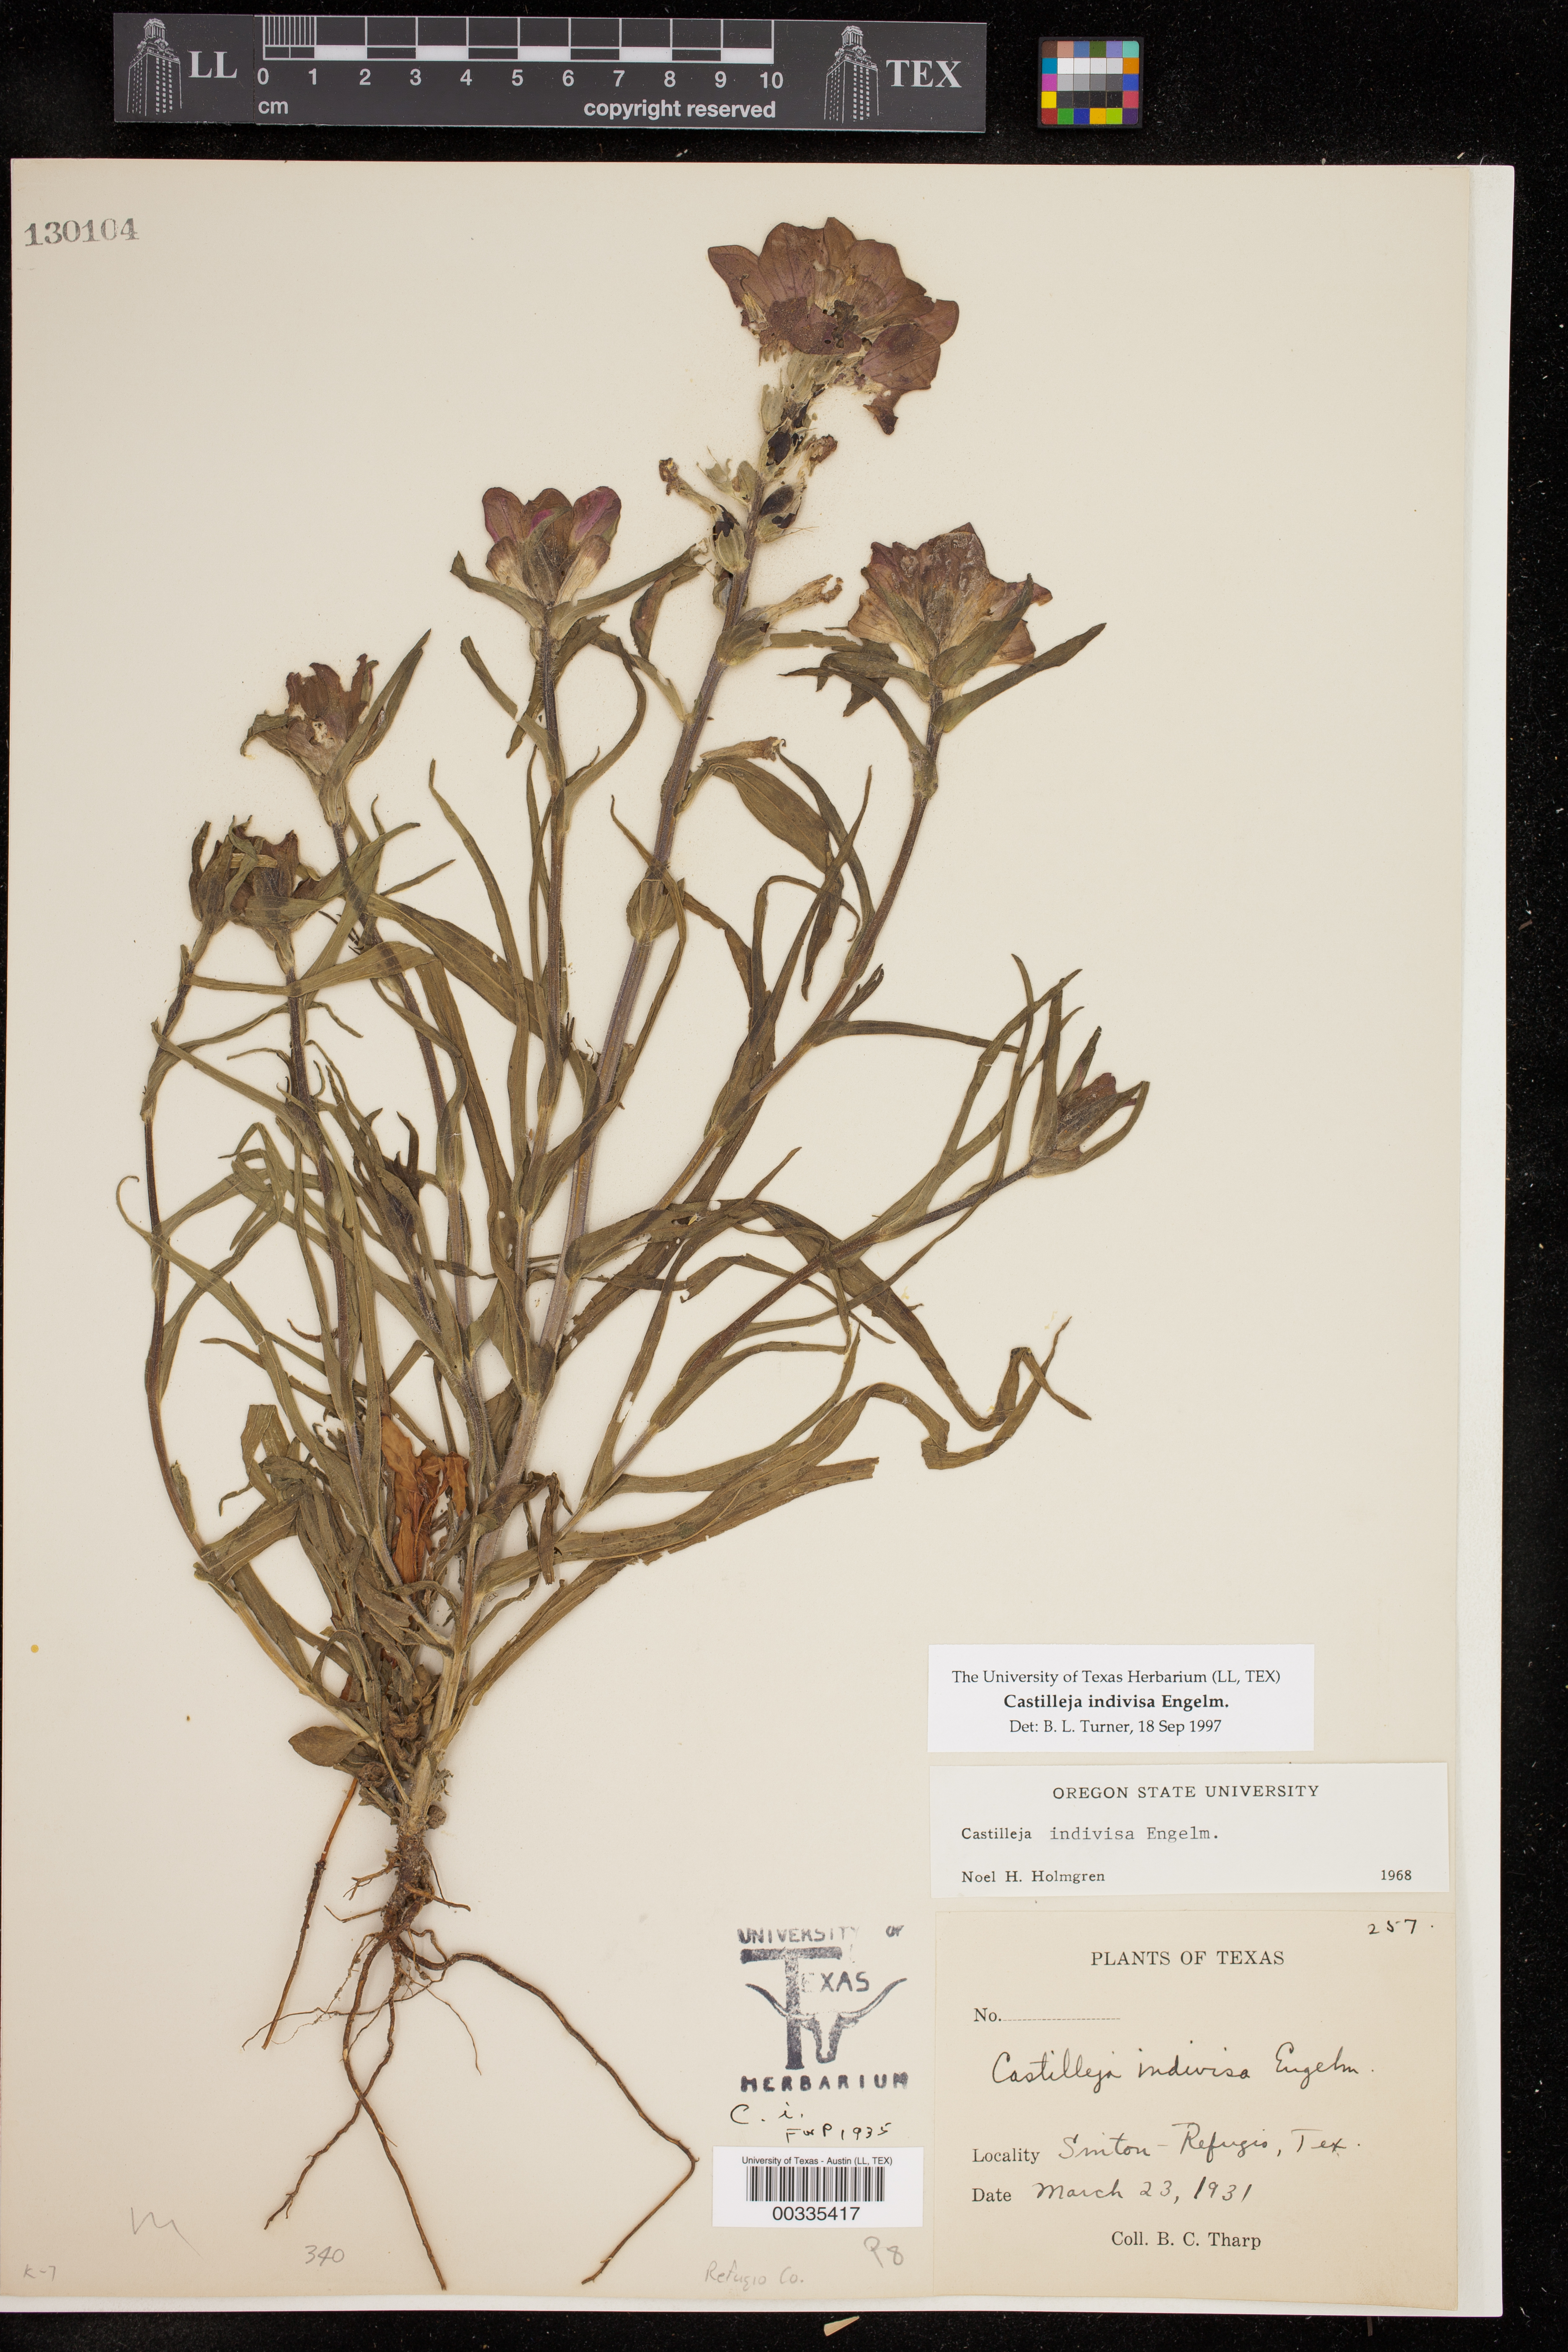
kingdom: Plantae
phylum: Tracheophyta
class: Magnoliopsida
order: Lamiales
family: Orobanchaceae
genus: Castilleja
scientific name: Castilleja indivisa
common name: Texas paintbrush
